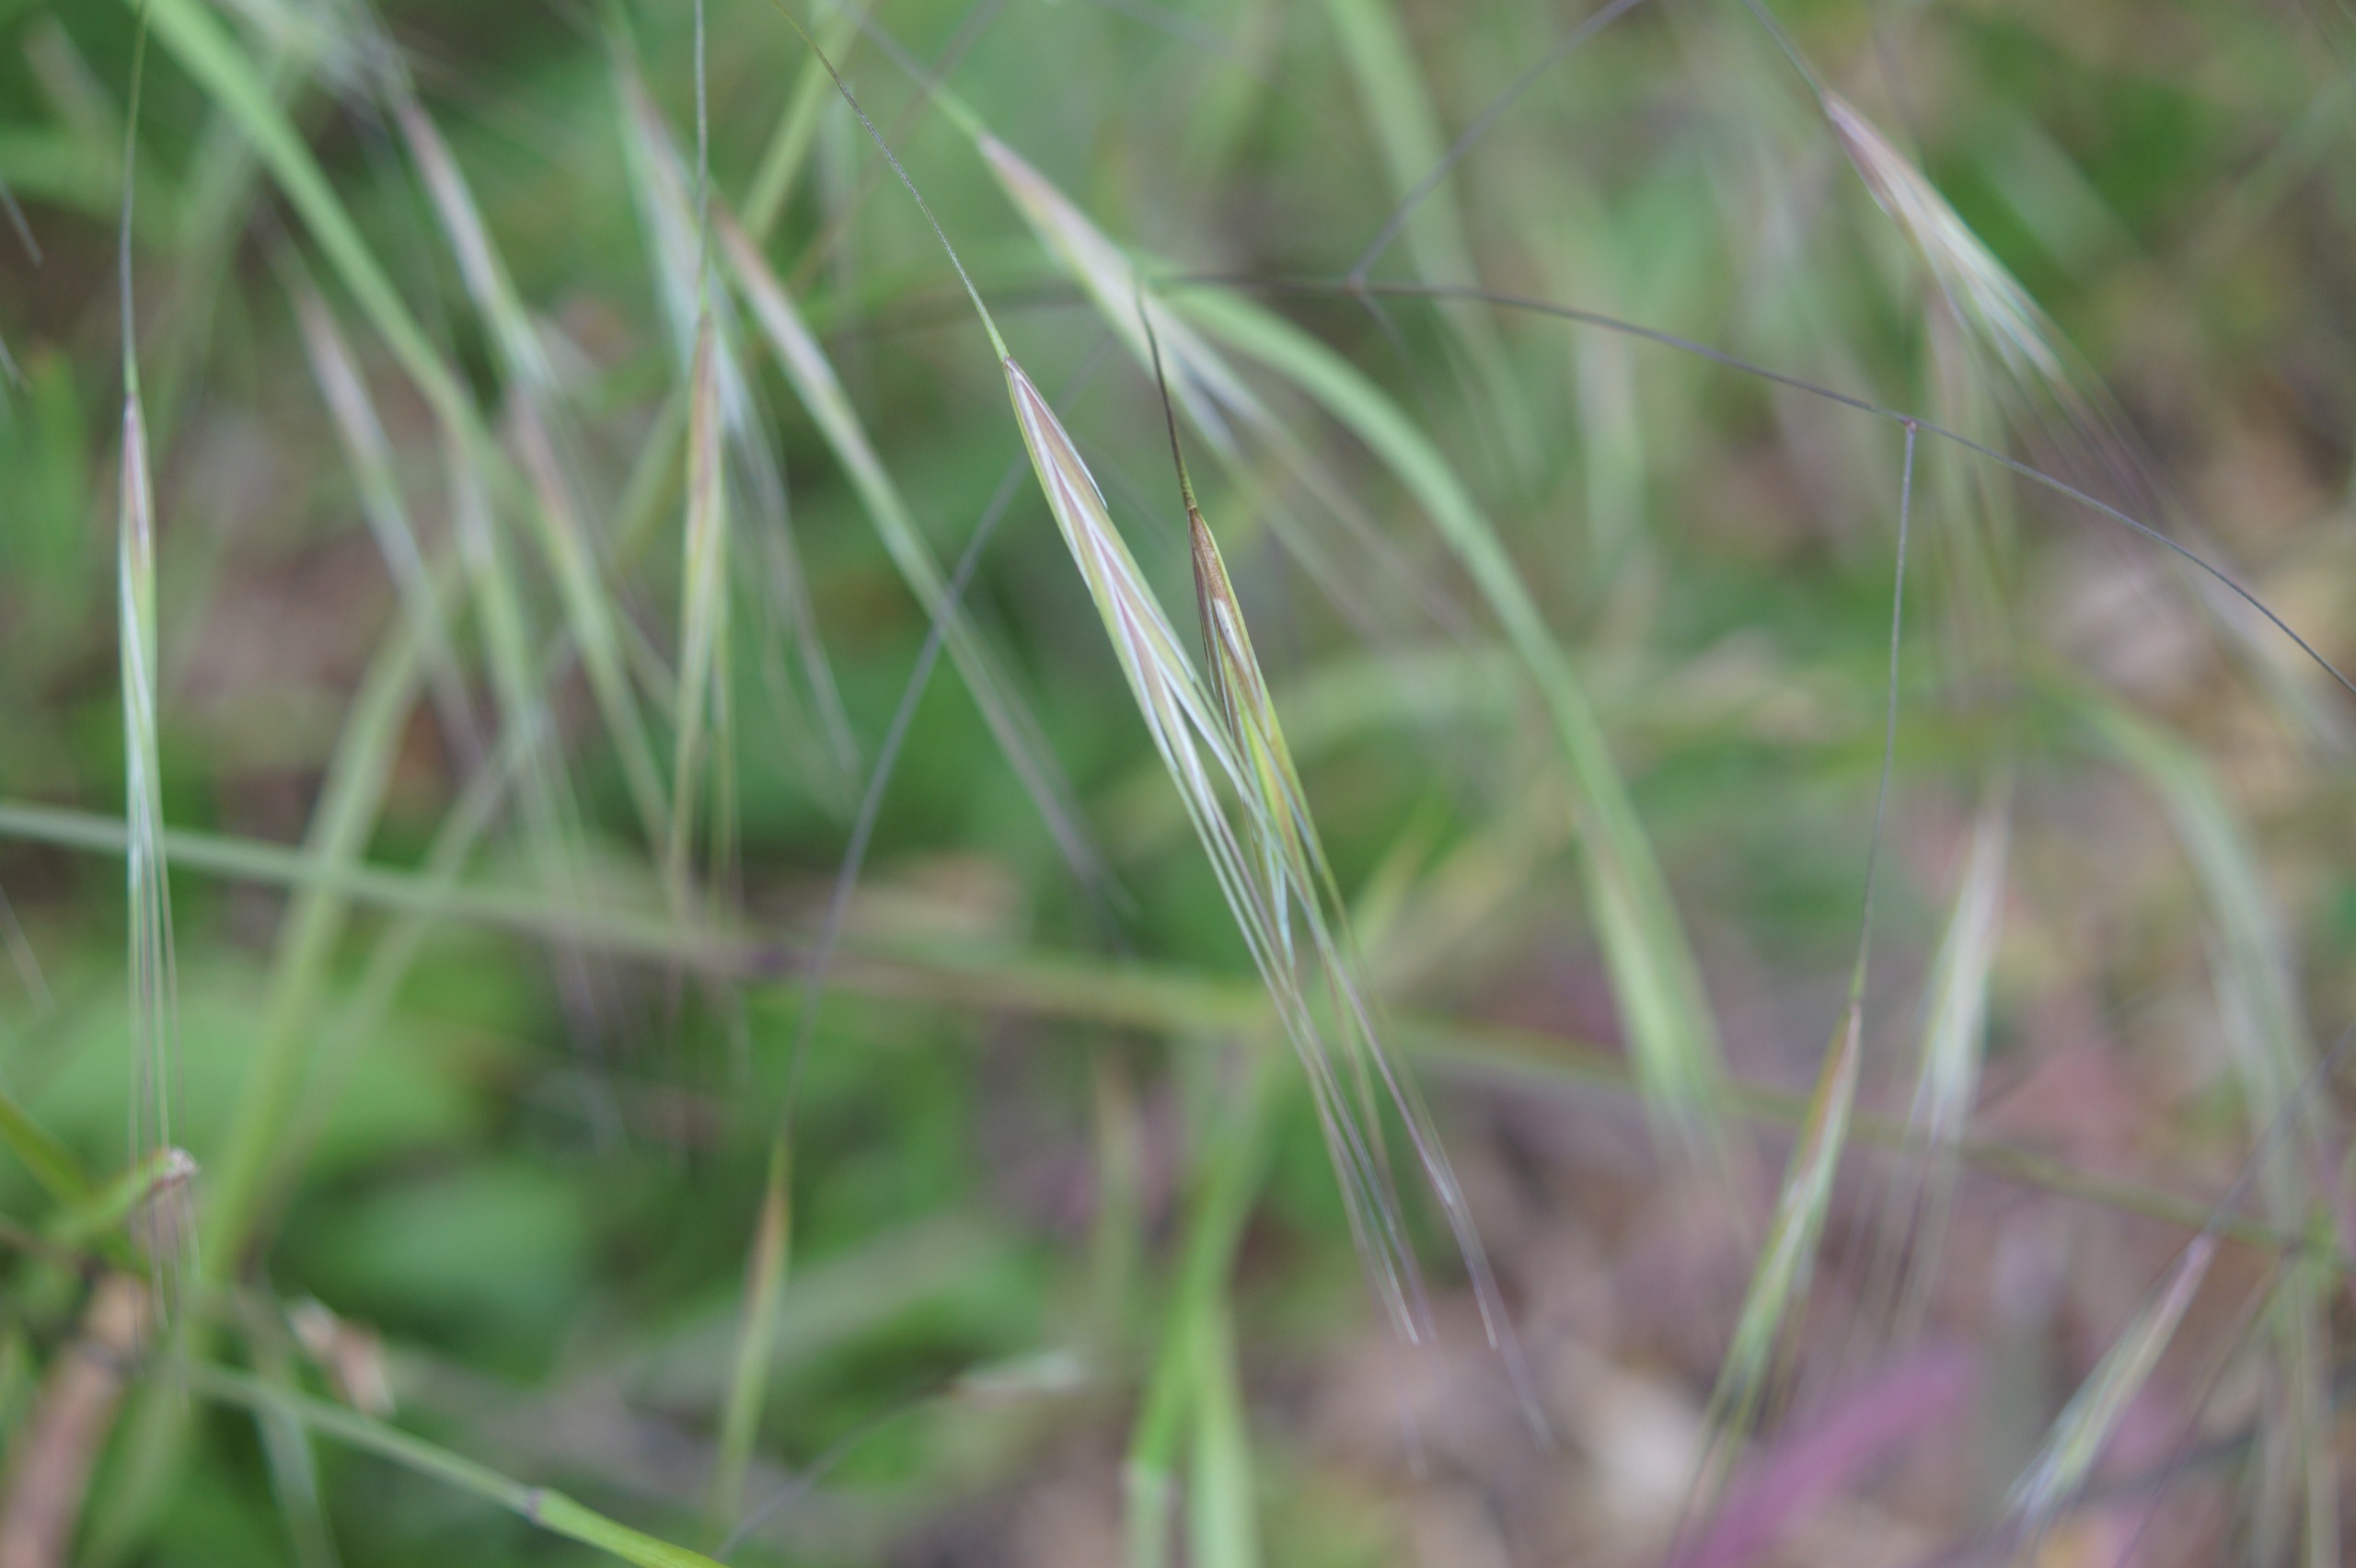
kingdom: Plantae
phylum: Tracheophyta
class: Liliopsida
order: Poales
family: Poaceae
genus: Bromus
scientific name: Bromus sterilis
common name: Gold hejre
